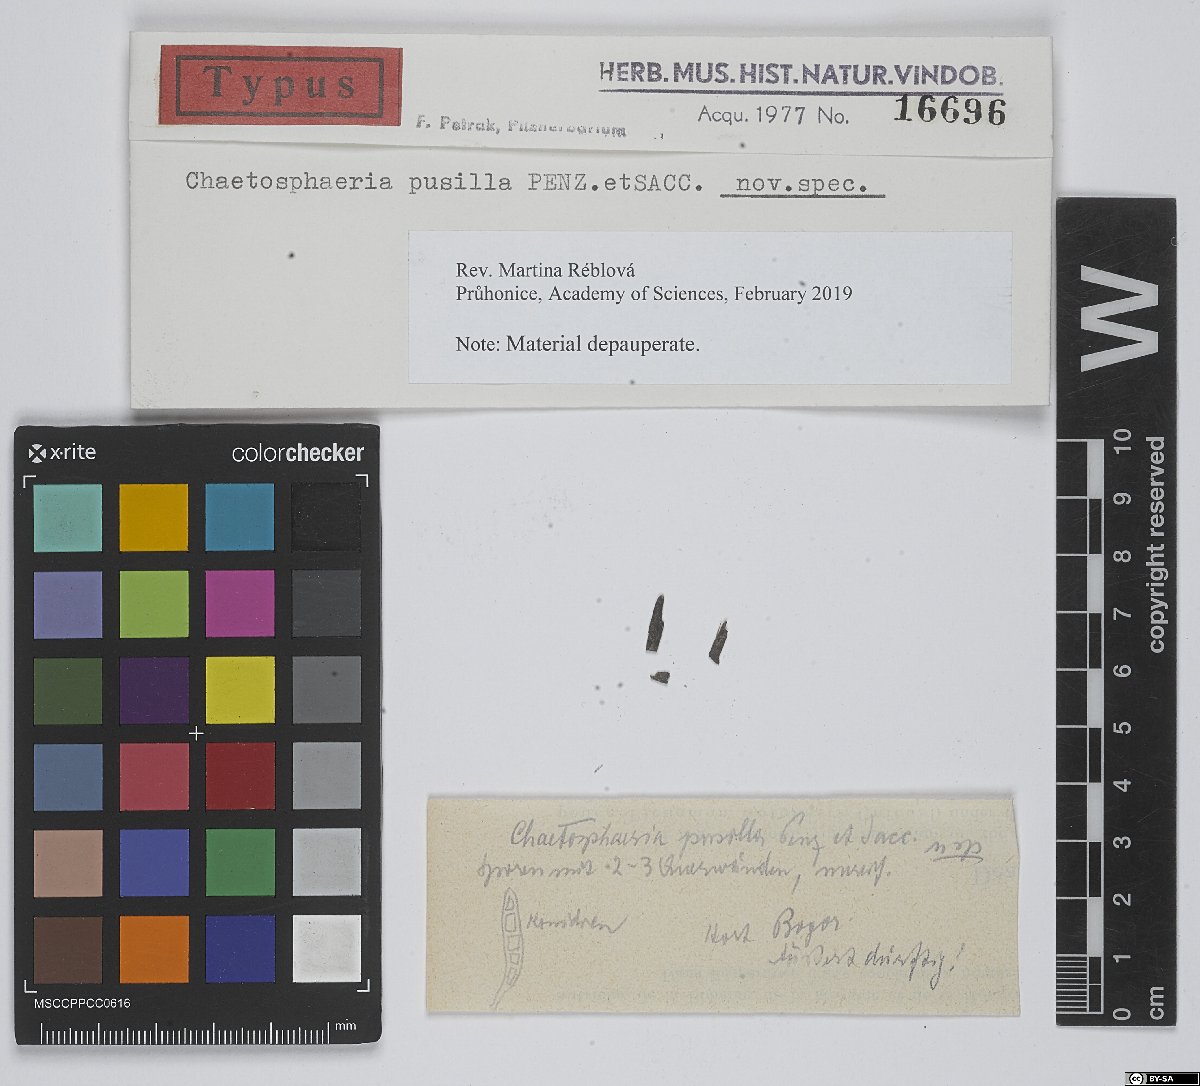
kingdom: Fungi
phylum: Ascomycota
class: Sordariomycetes
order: Chaetosphaeriales
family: Chaetosphaeriaceae
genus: Chaetosphaeria
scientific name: Chaetosphaeria
